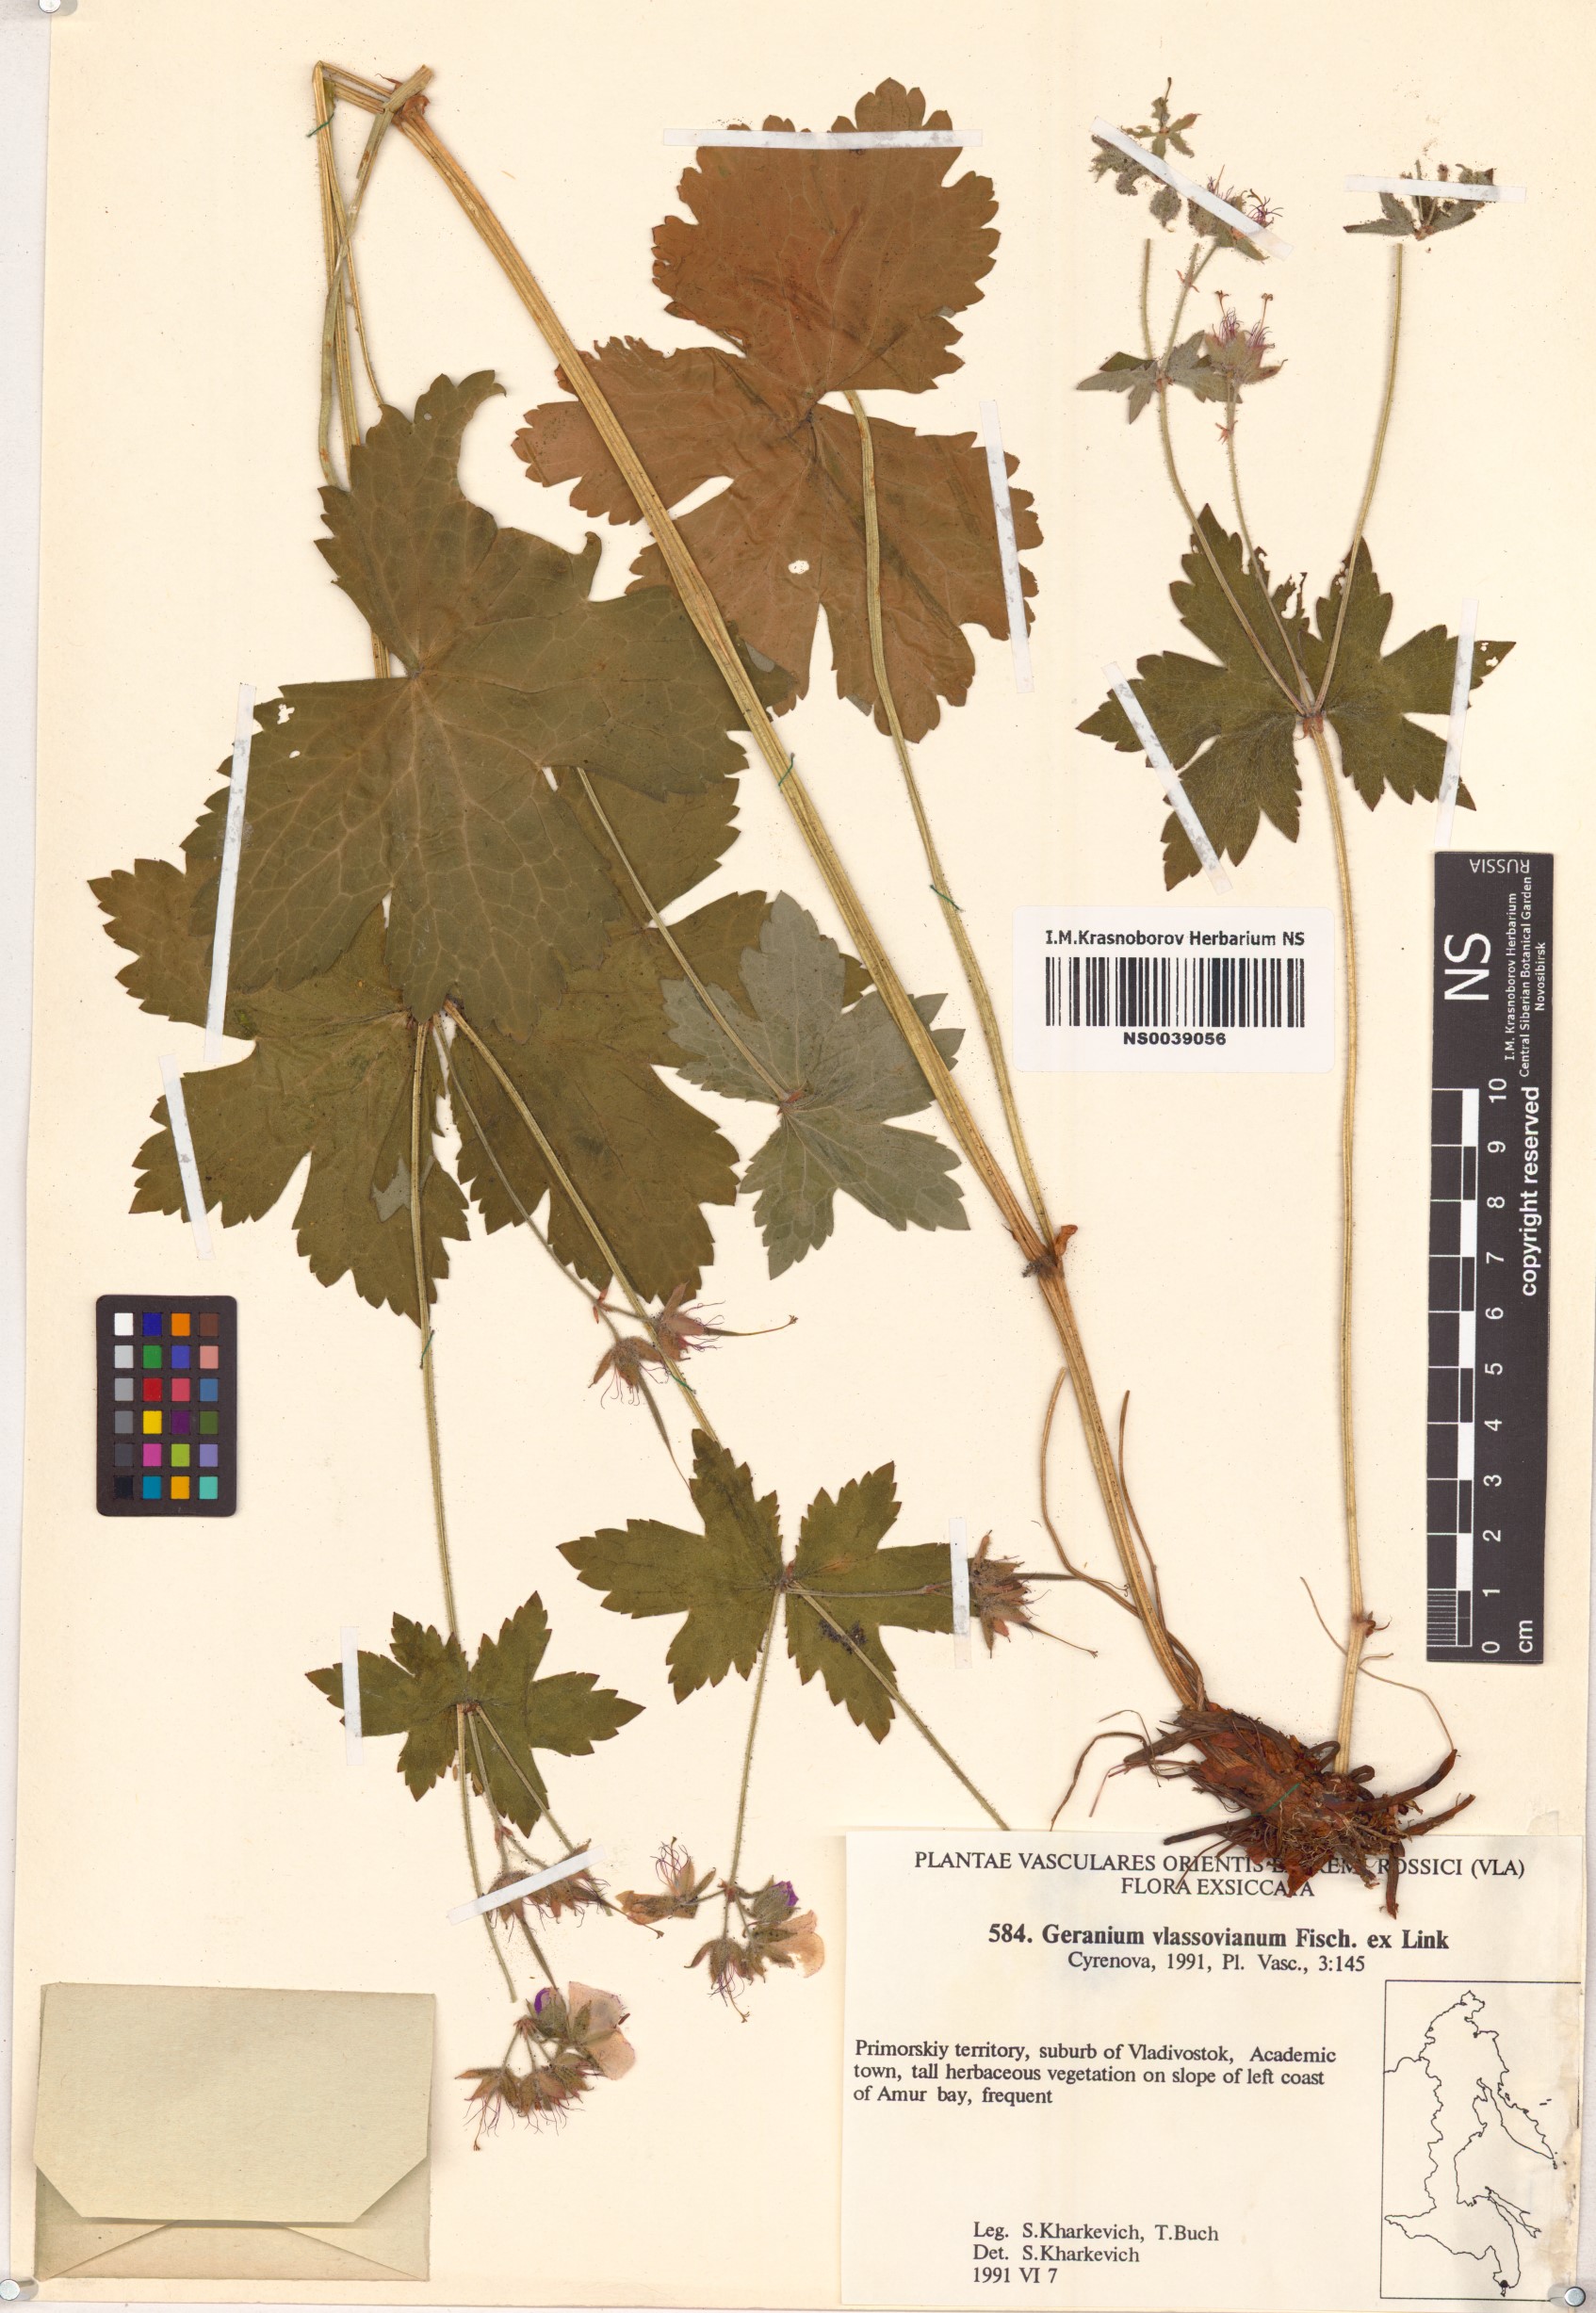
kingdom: Plantae
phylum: Tracheophyta
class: Magnoliopsida
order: Geraniales
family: Geraniaceae
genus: Geranium
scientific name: Geranium wlassovianum
